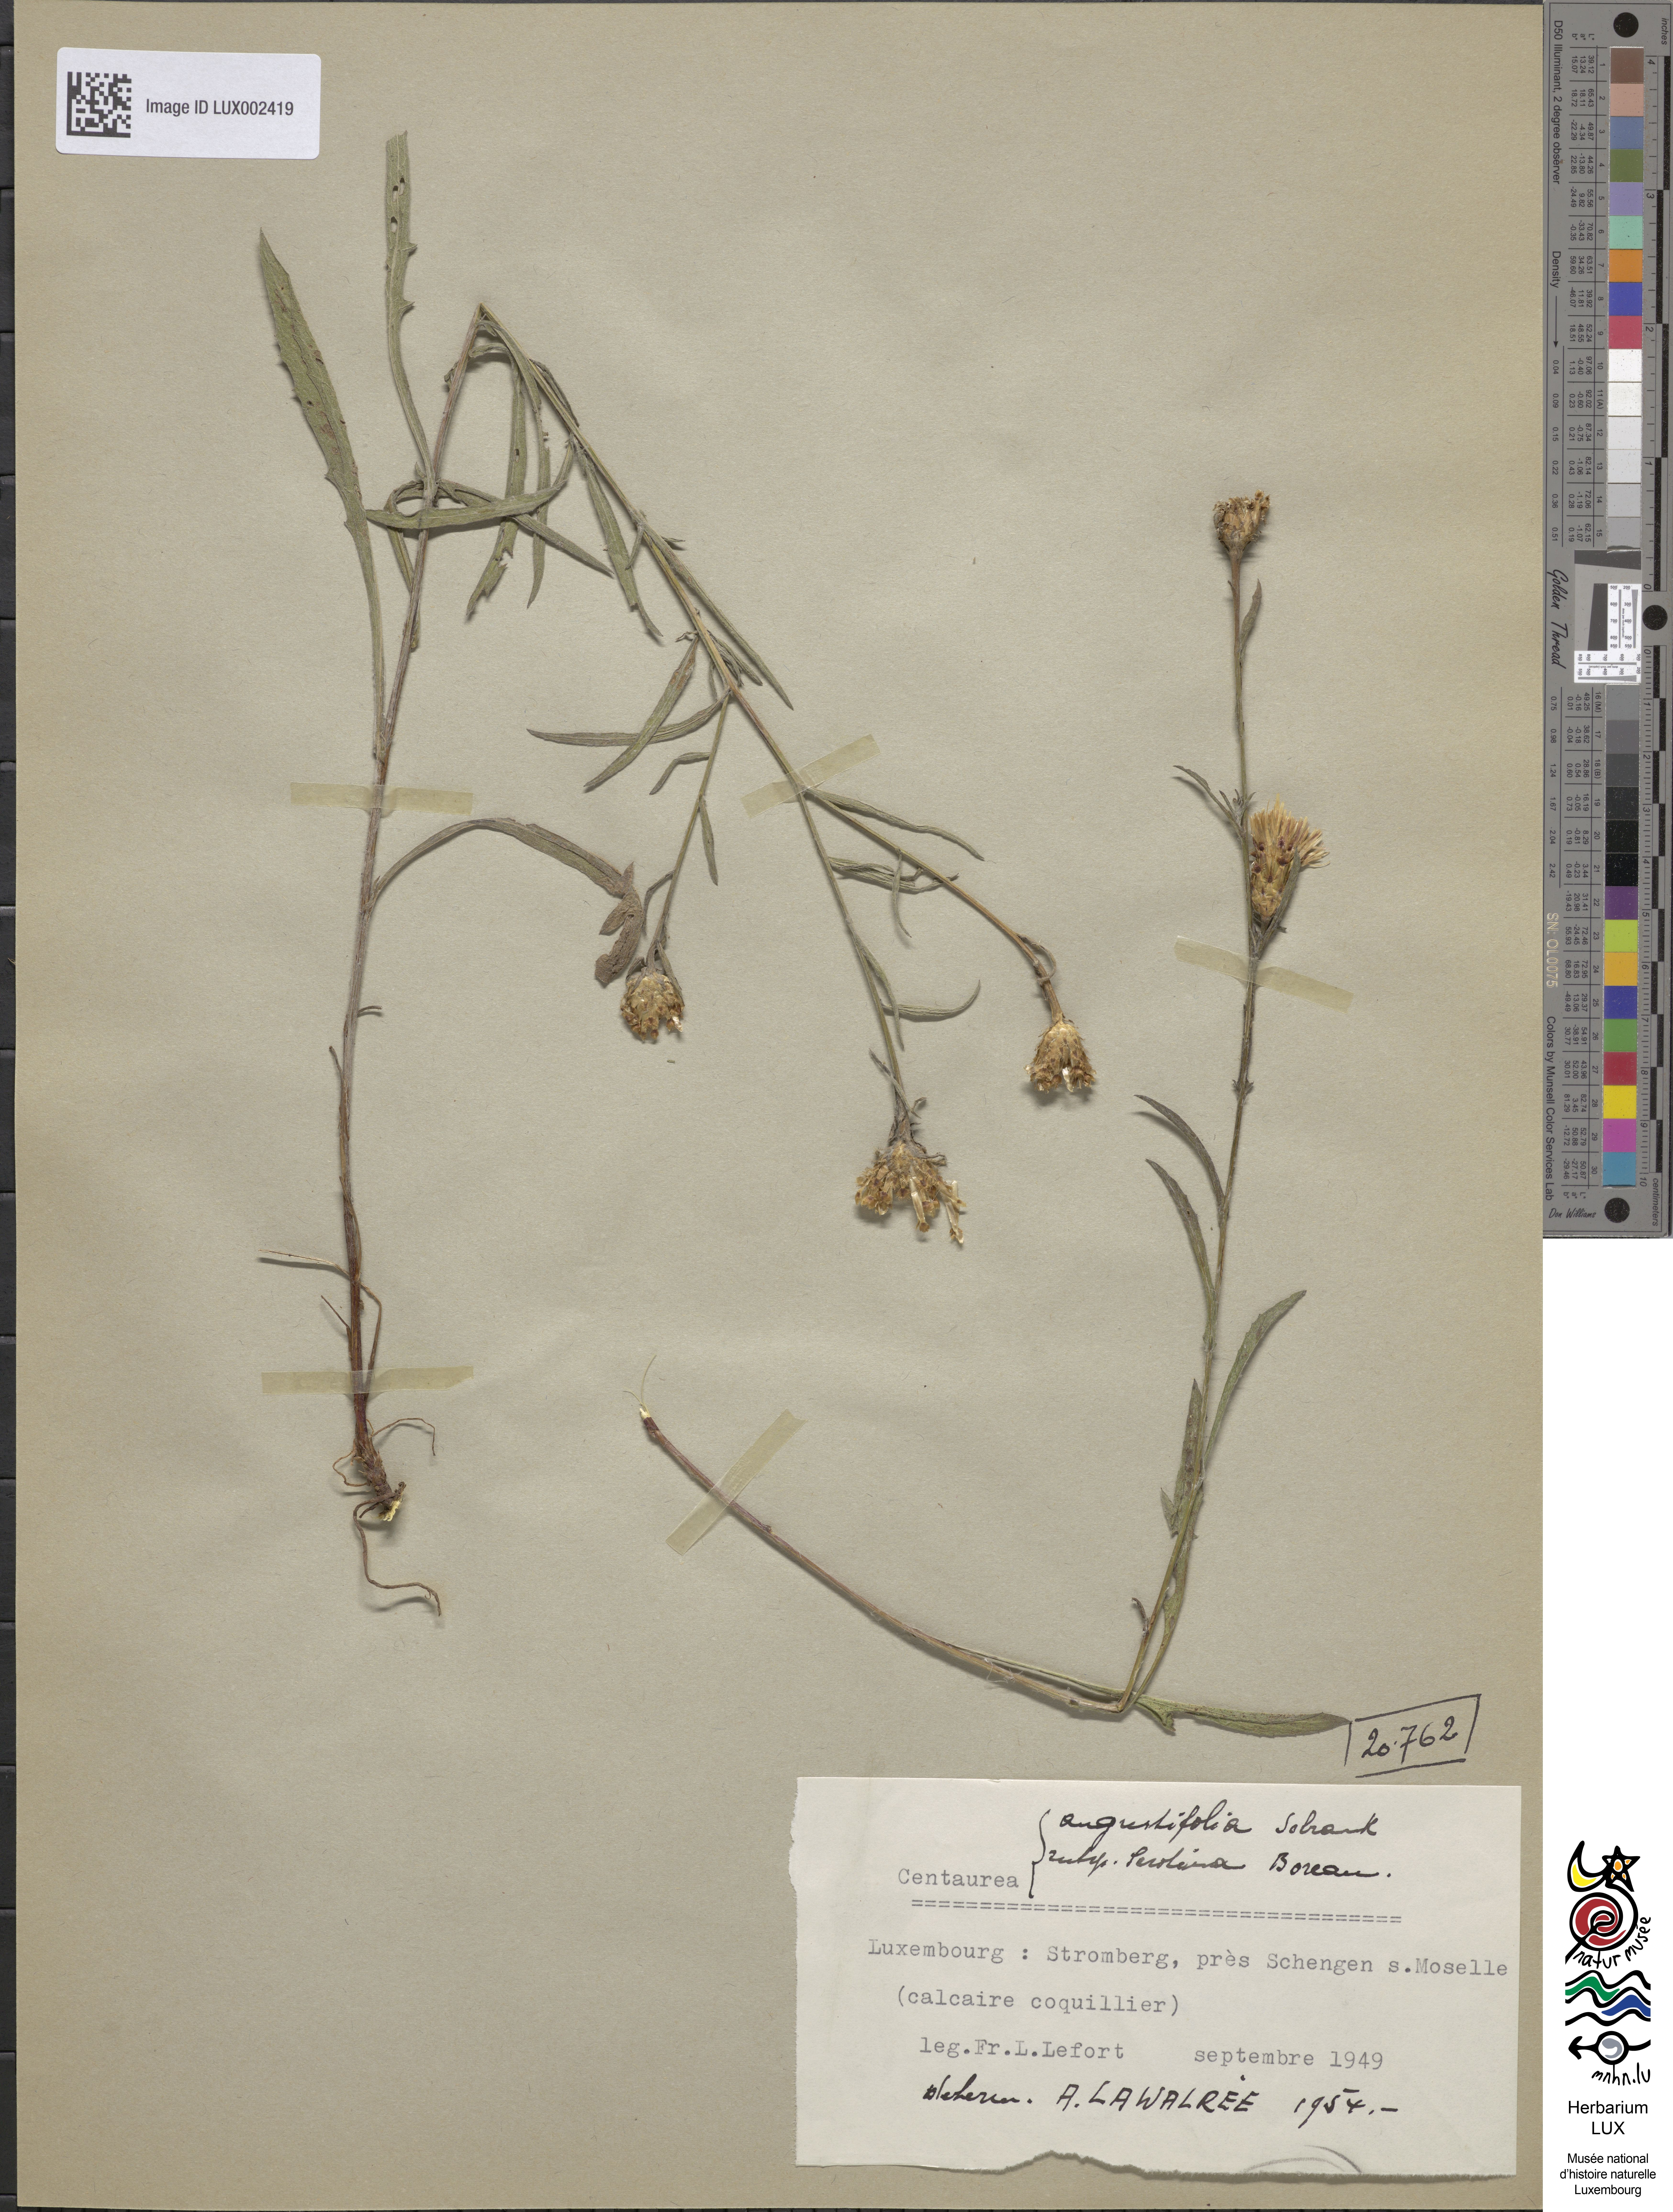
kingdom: Plantae
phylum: Tracheophyta
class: Magnoliopsida
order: Asterales
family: Asteraceae
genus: Centaurea
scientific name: Centaurea
